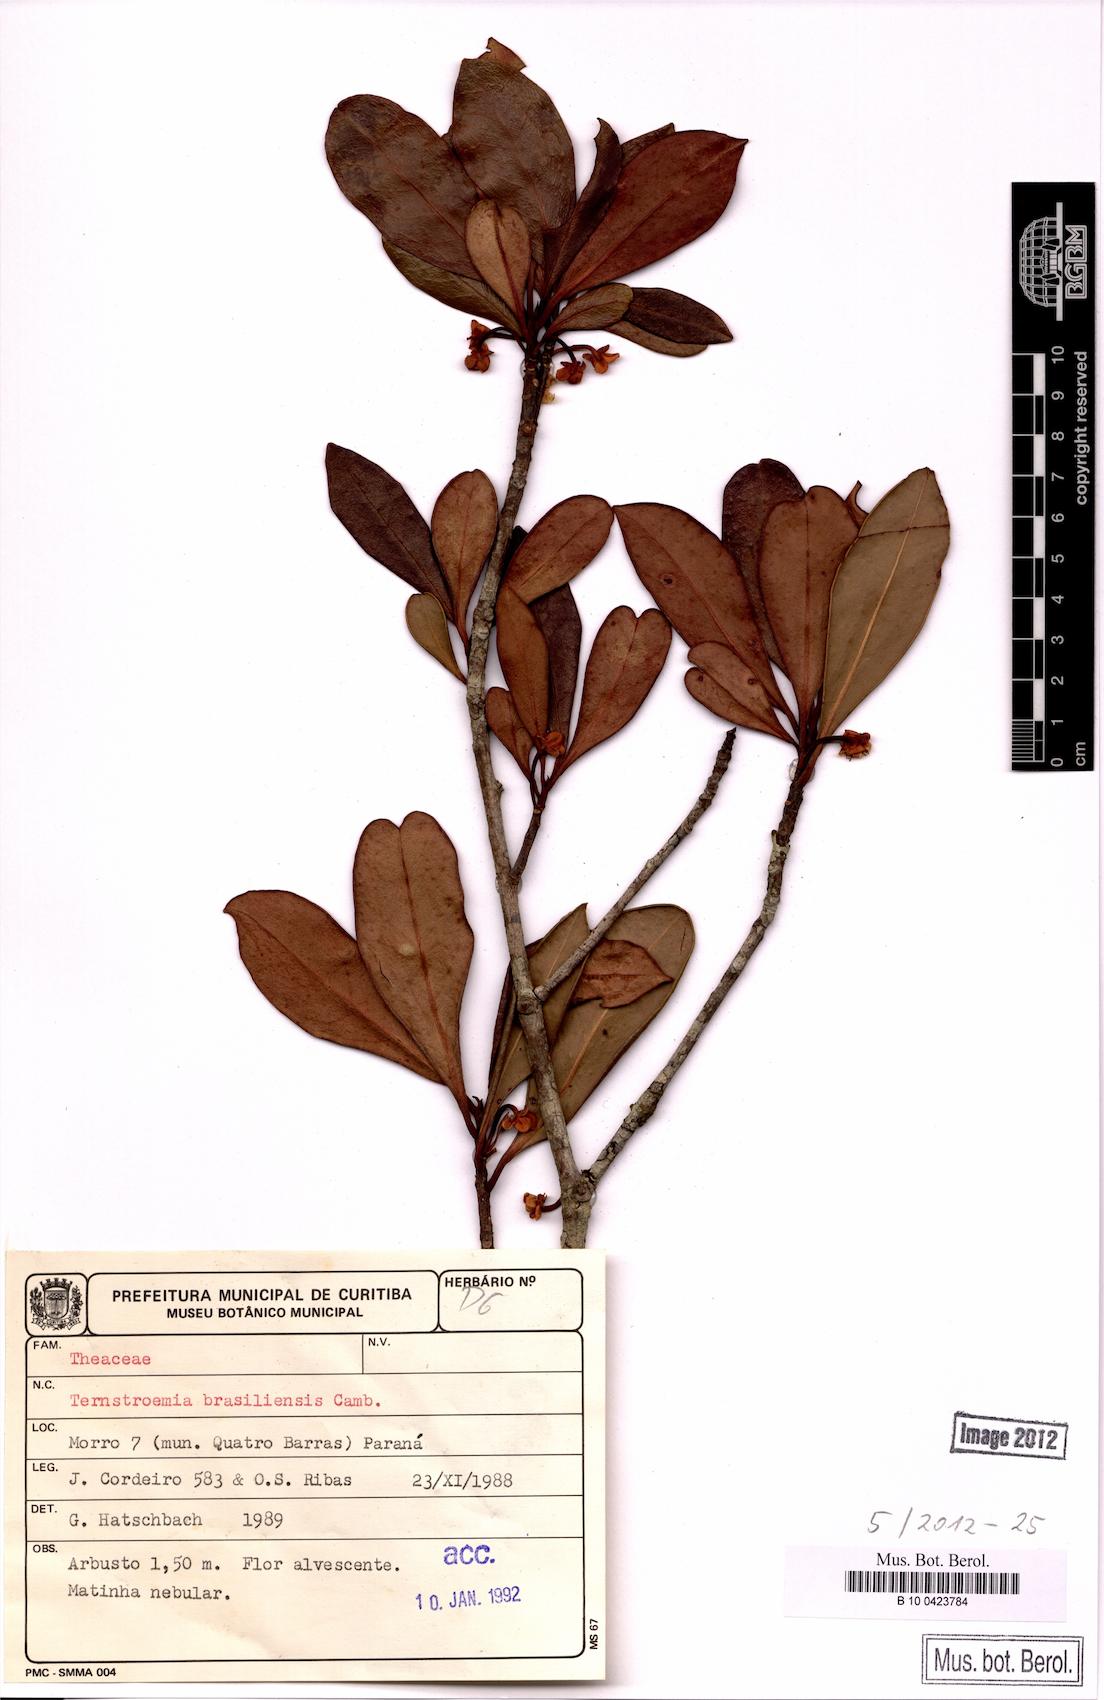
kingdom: Plantae
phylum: Tracheophyta
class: Magnoliopsida
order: Ericales
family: Pentaphylacaceae
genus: Ternstroemia
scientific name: Ternstroemia brasiliensis
